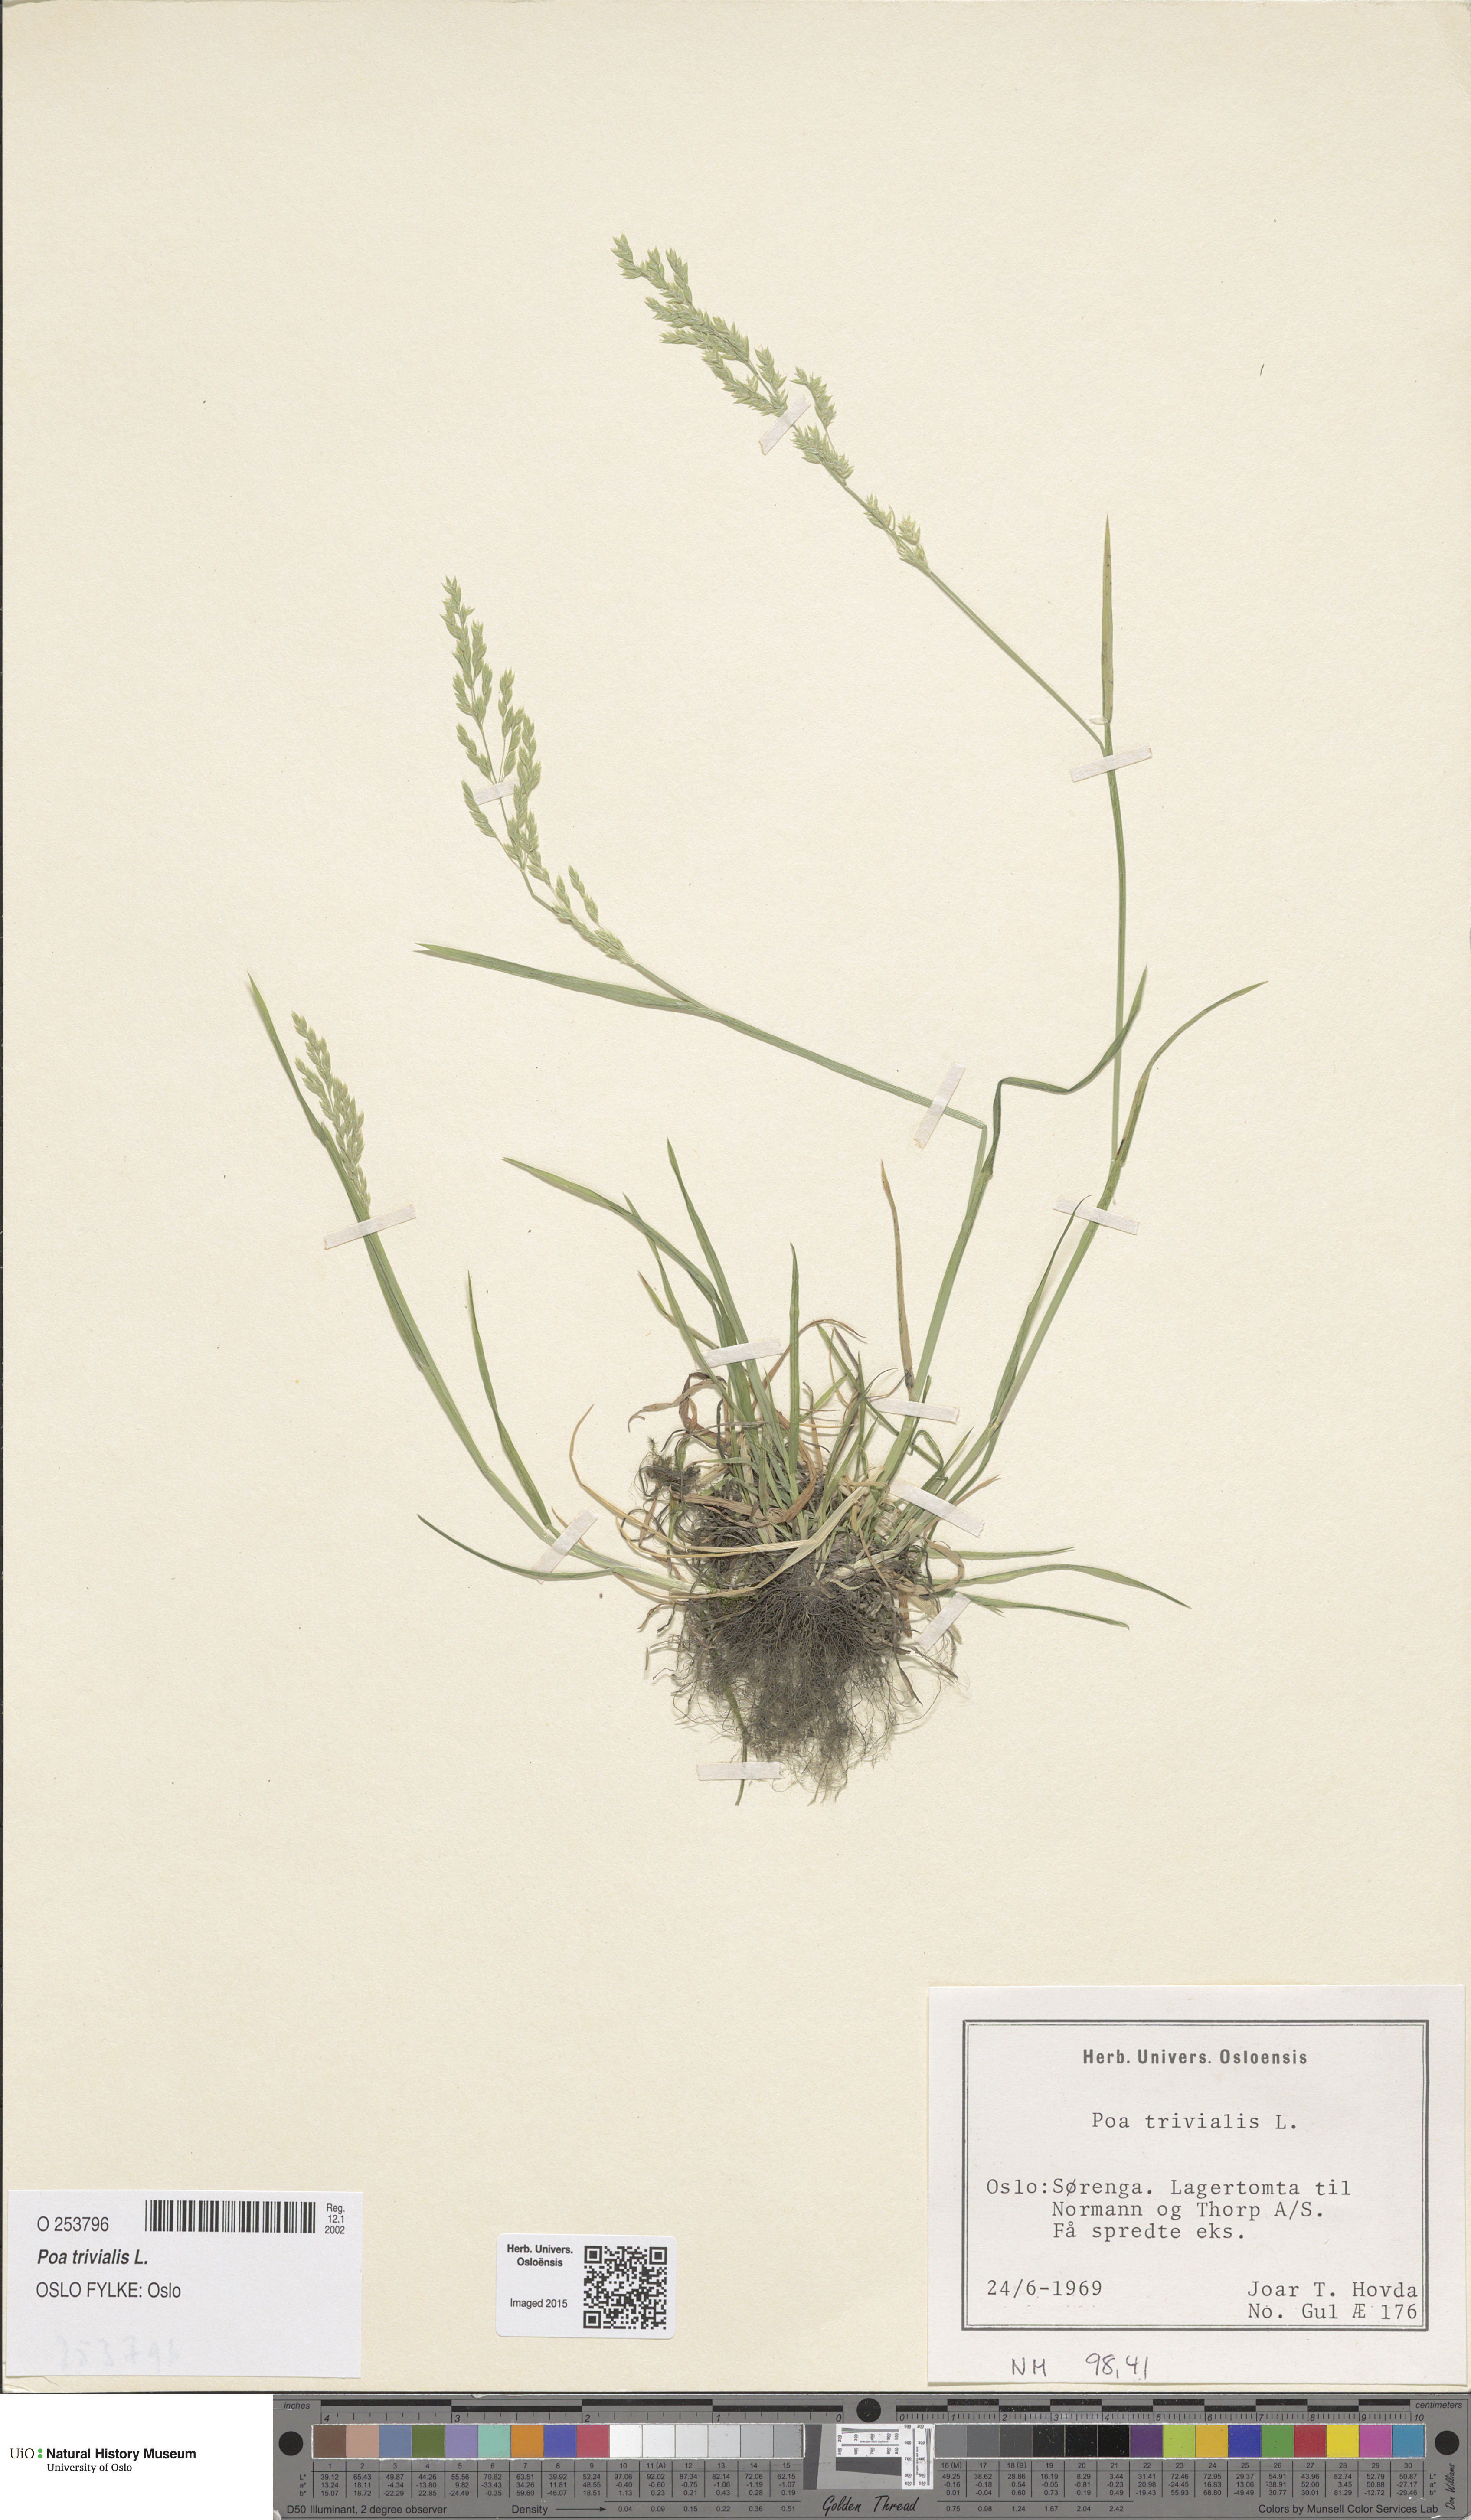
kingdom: Plantae
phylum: Tracheophyta
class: Liliopsida
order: Poales
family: Poaceae
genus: Poa
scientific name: Poa trivialis
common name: Rough bluegrass
